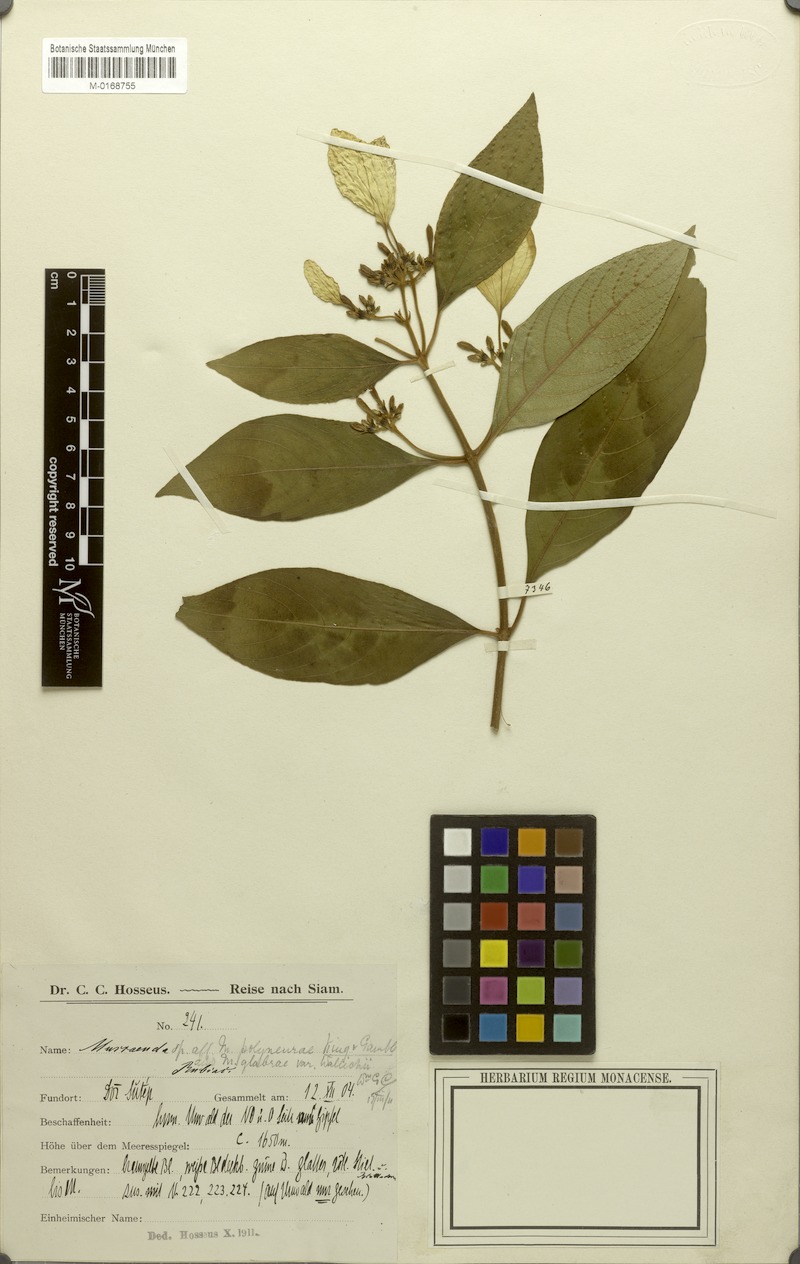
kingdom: Plantae
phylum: Tracheophyta
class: Magnoliopsida
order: Gentianales
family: Rubiaceae
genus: Mussaenda
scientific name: Mussaenda
